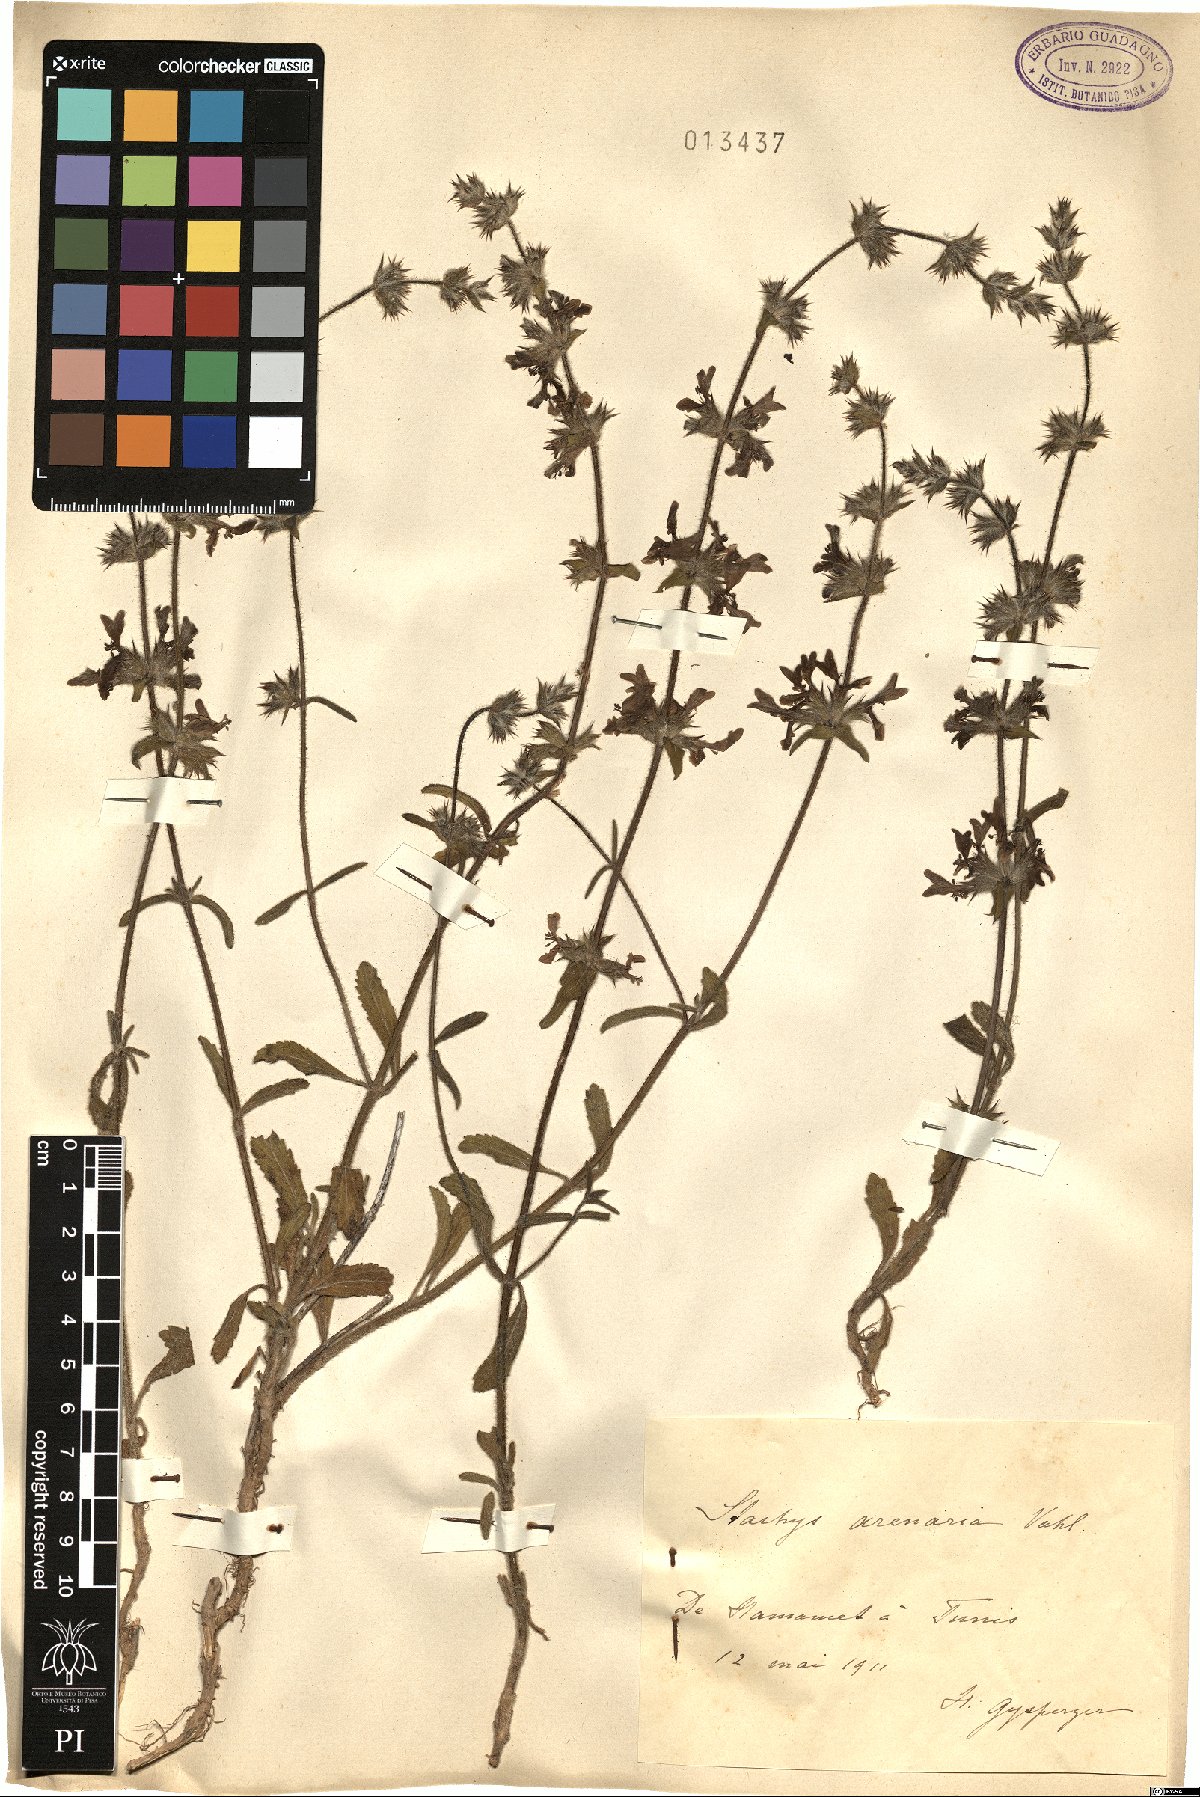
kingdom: Plantae
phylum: Tracheophyta
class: Magnoliopsida
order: Lamiales
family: Lamiaceae
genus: Stachys
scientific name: Stachys arenaria
